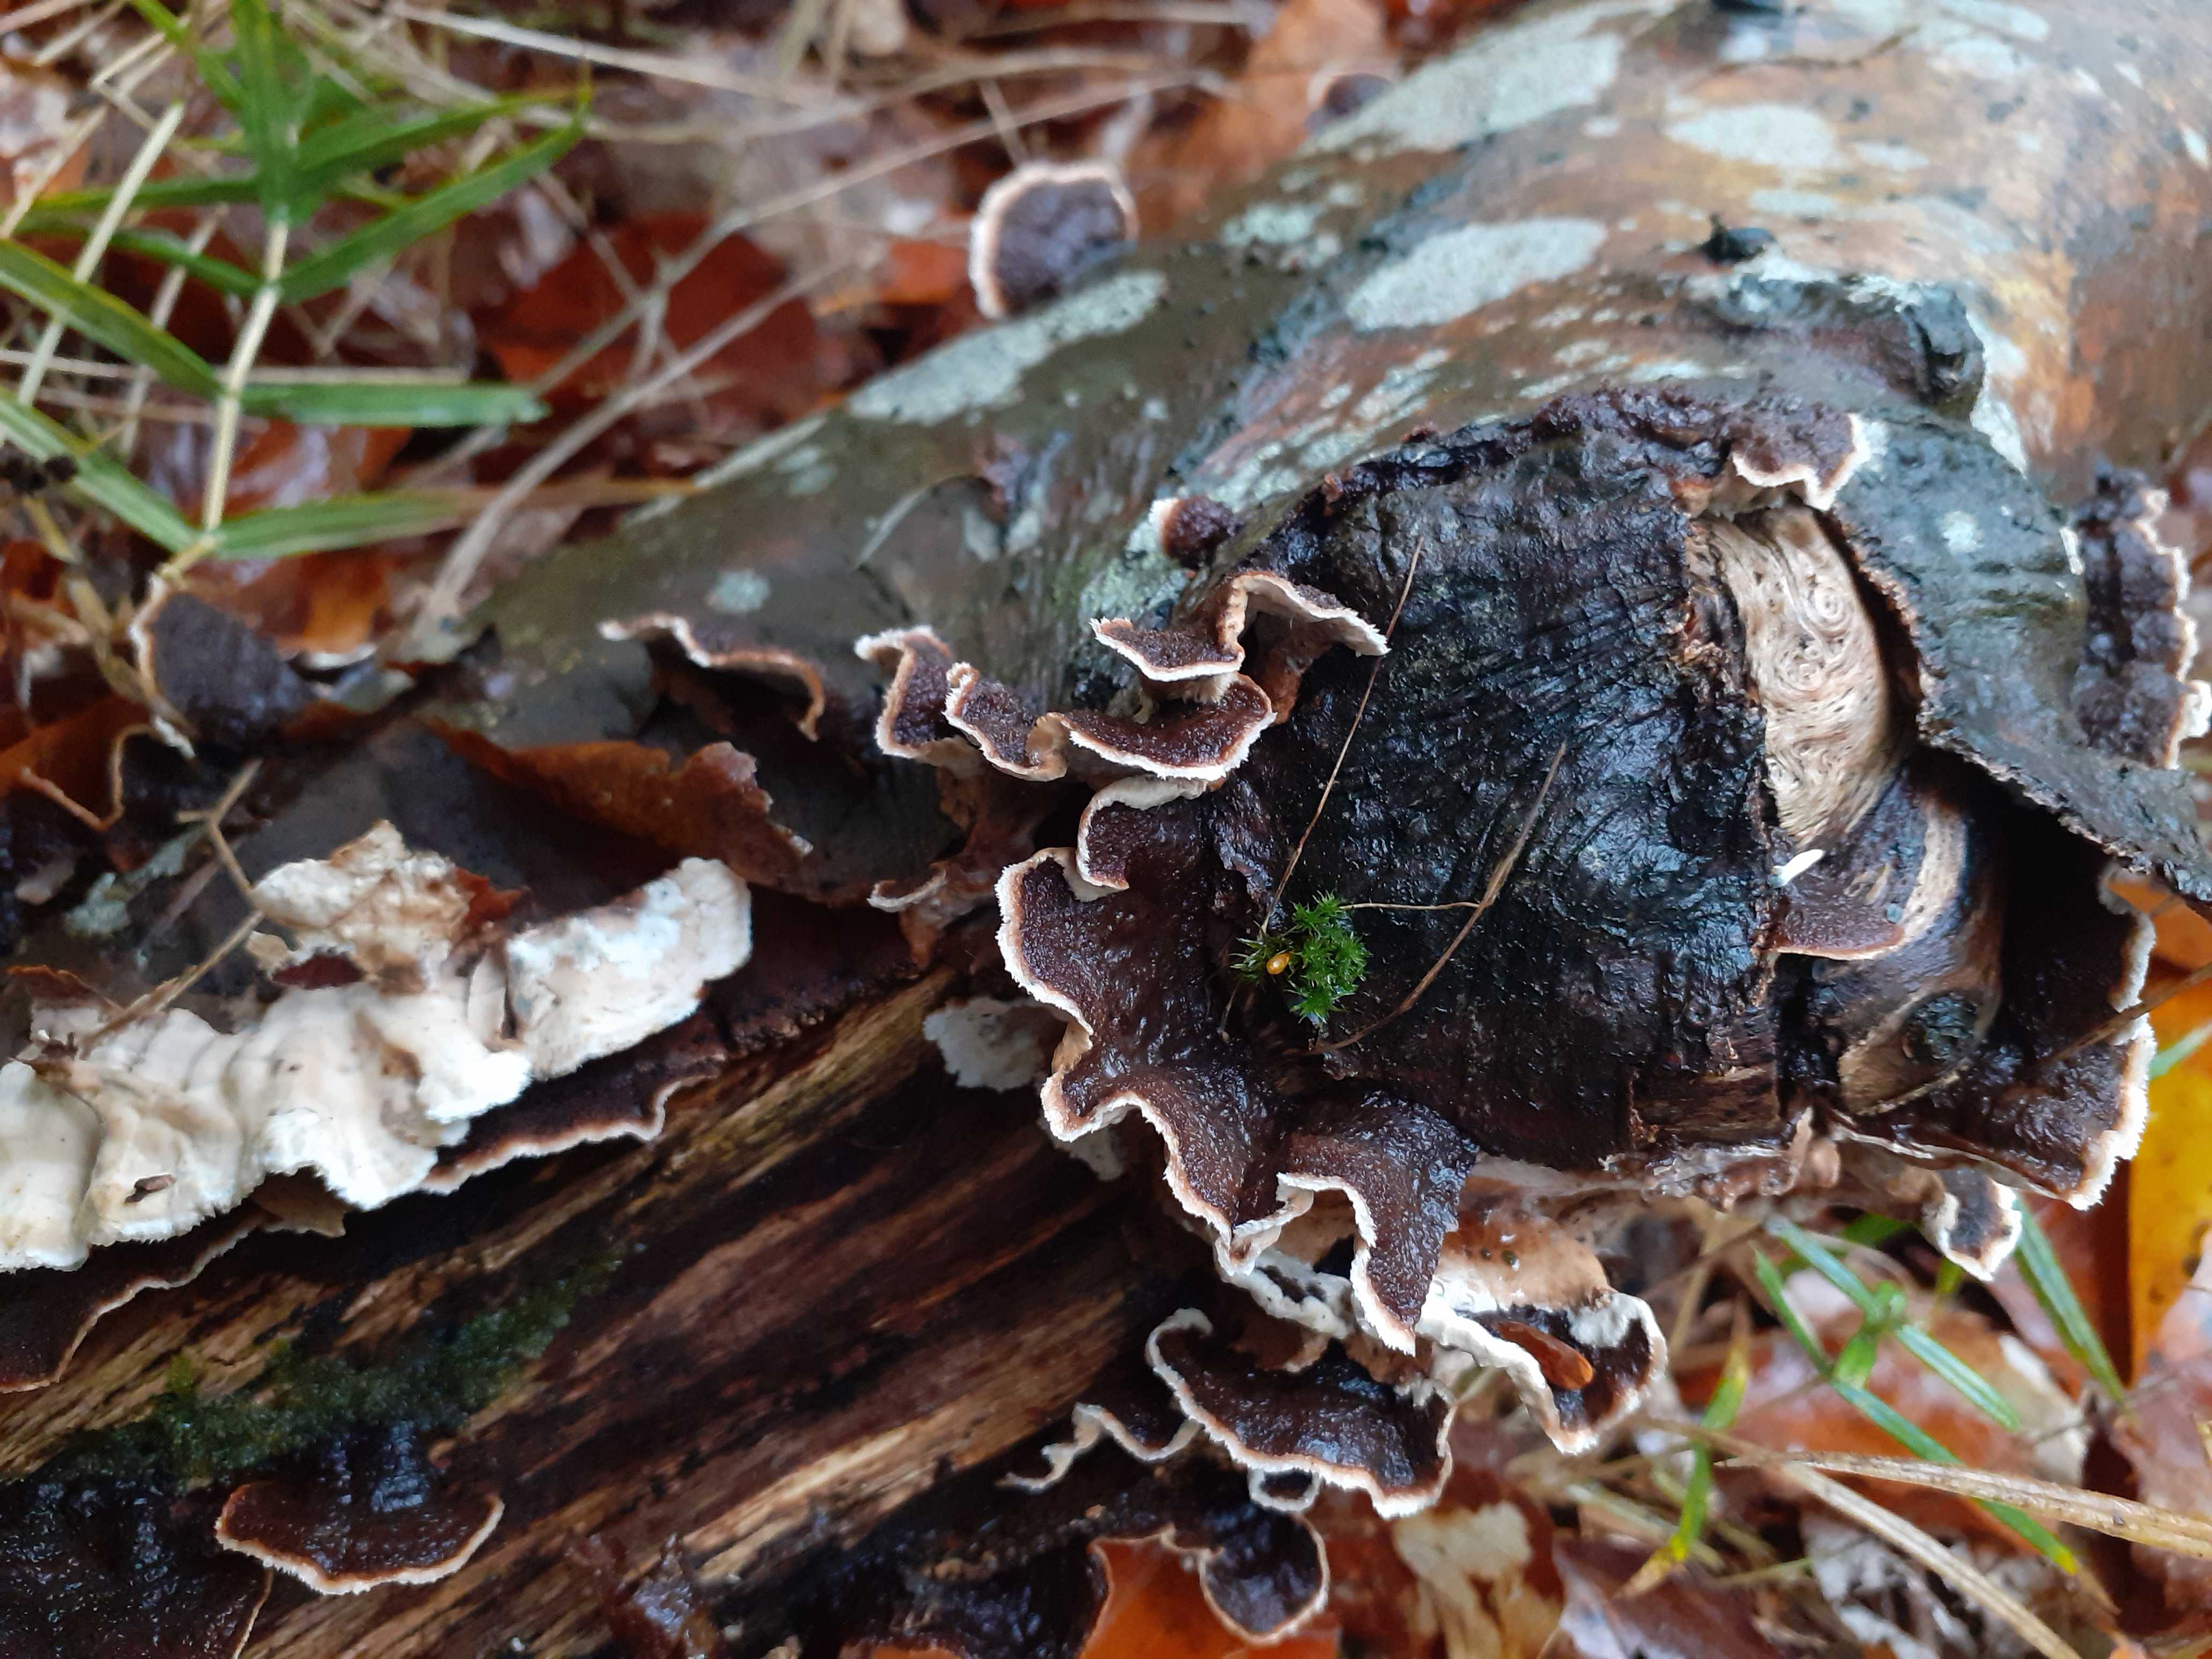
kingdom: Fungi
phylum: Basidiomycota
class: Agaricomycetes
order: Russulales
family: Hericiaceae
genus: Laxitextum
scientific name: Laxitextum bicolor
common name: tvefarvet filtskind
